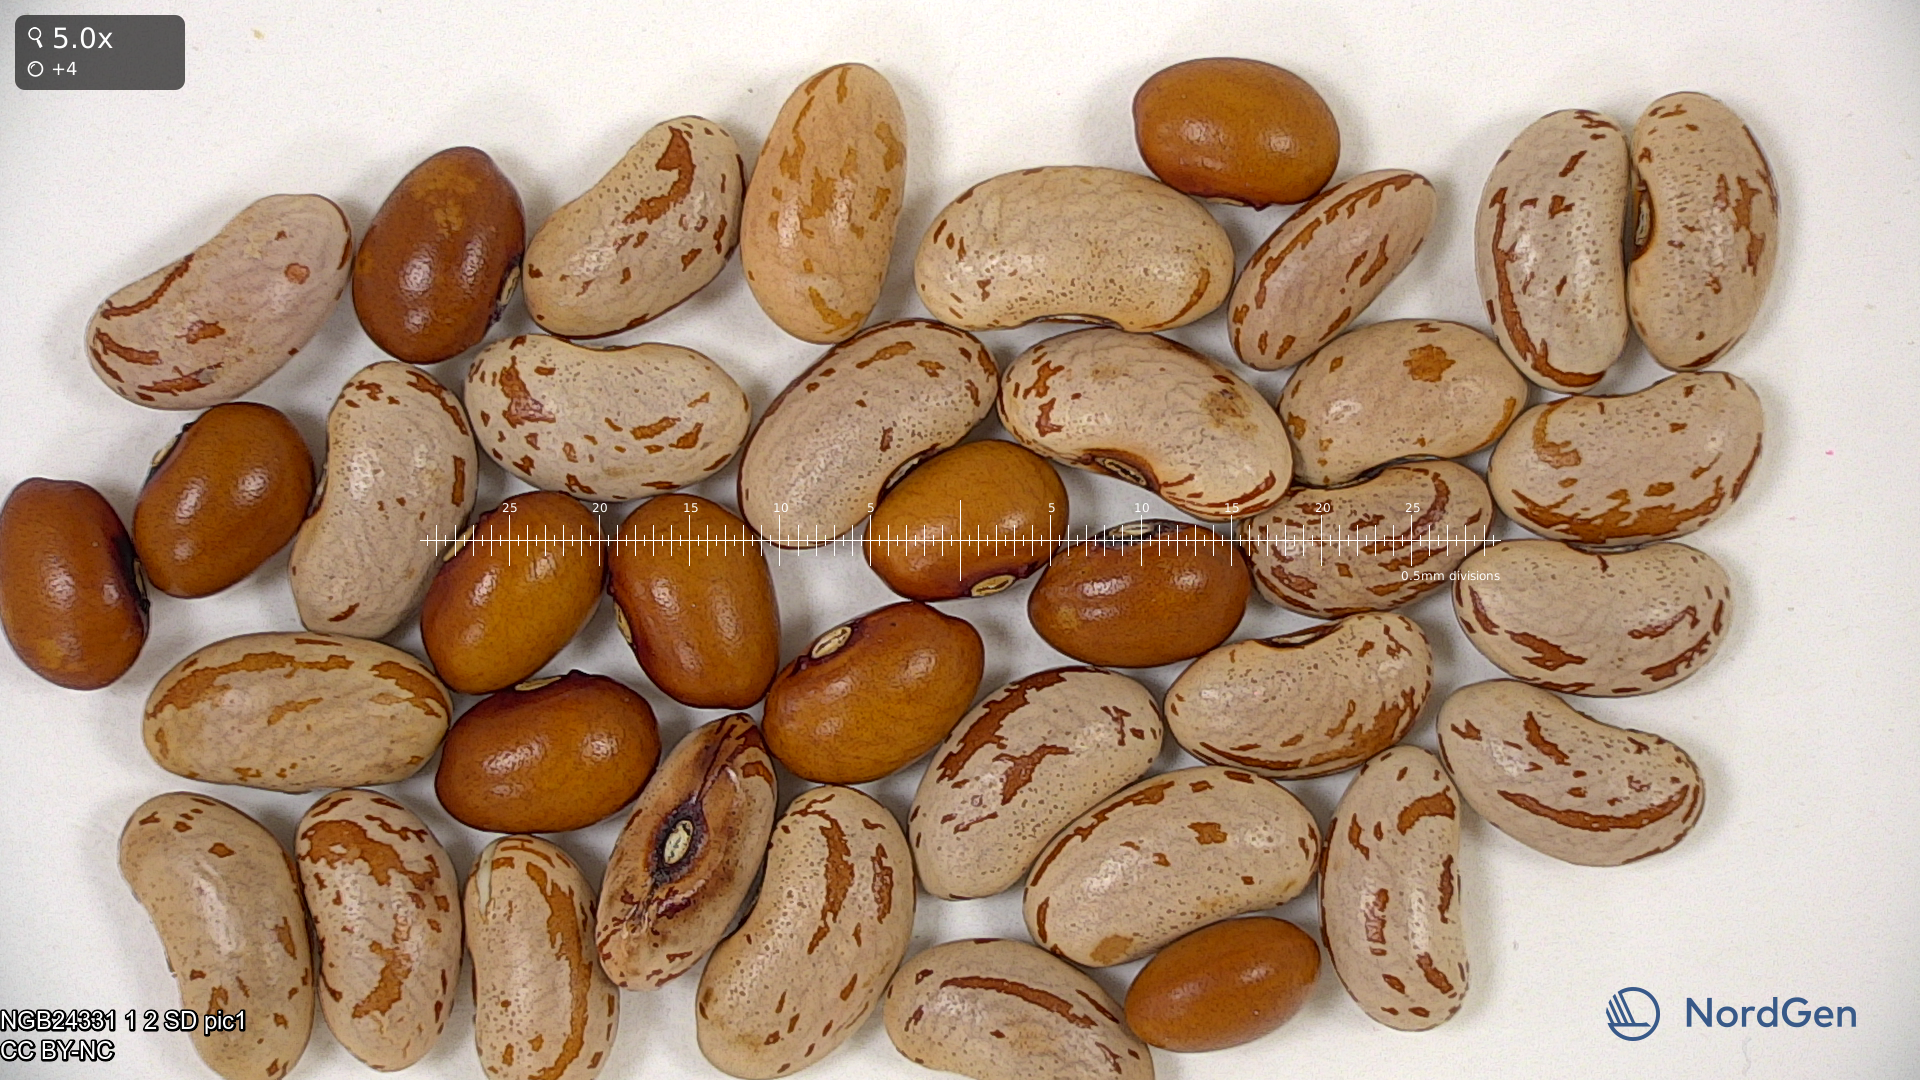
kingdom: Plantae
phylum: Tracheophyta
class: Magnoliopsida
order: Fabales
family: Fabaceae
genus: Phaseolus
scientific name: Phaseolus vulgaris
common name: Bean
